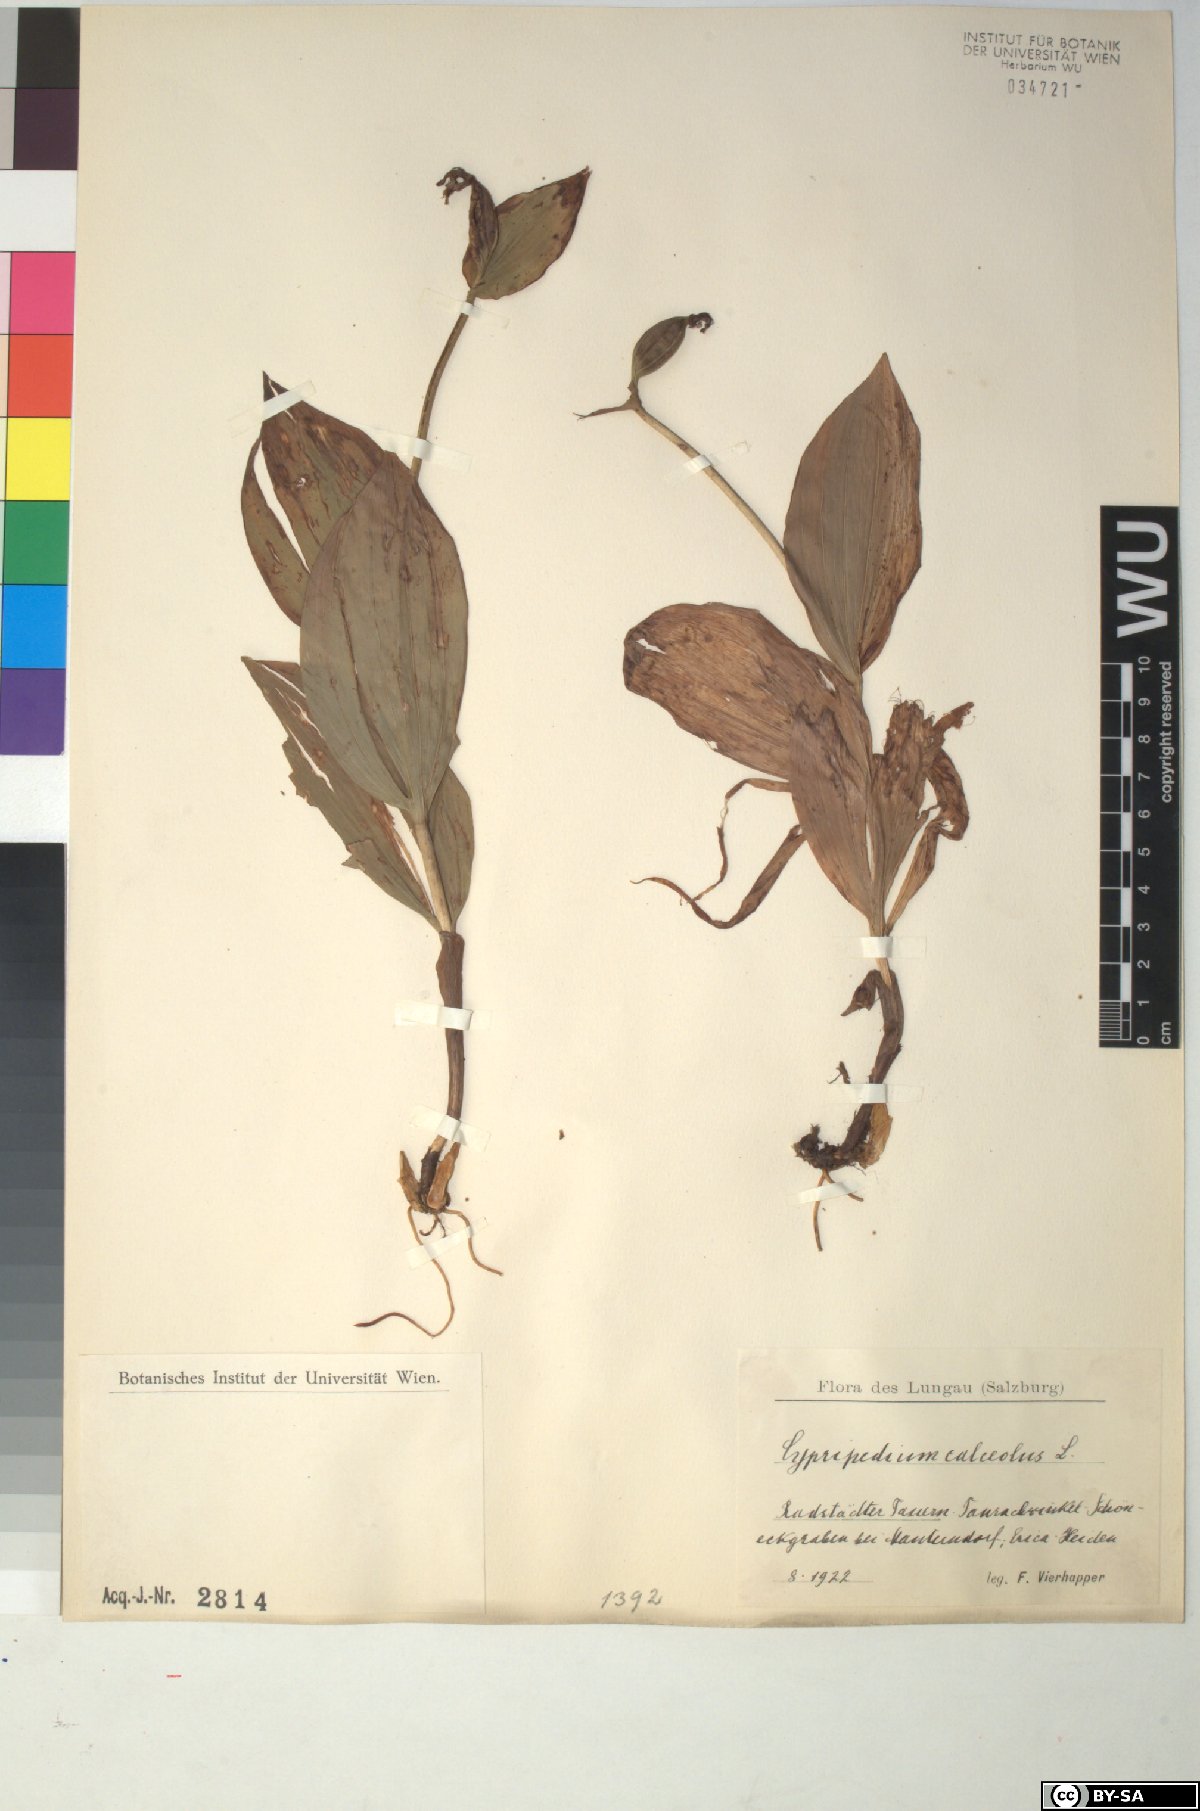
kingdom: Plantae
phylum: Tracheophyta
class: Liliopsida
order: Asparagales
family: Orchidaceae
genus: Cypripedium
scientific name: Cypripedium calceolus
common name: Lady's-slipper
